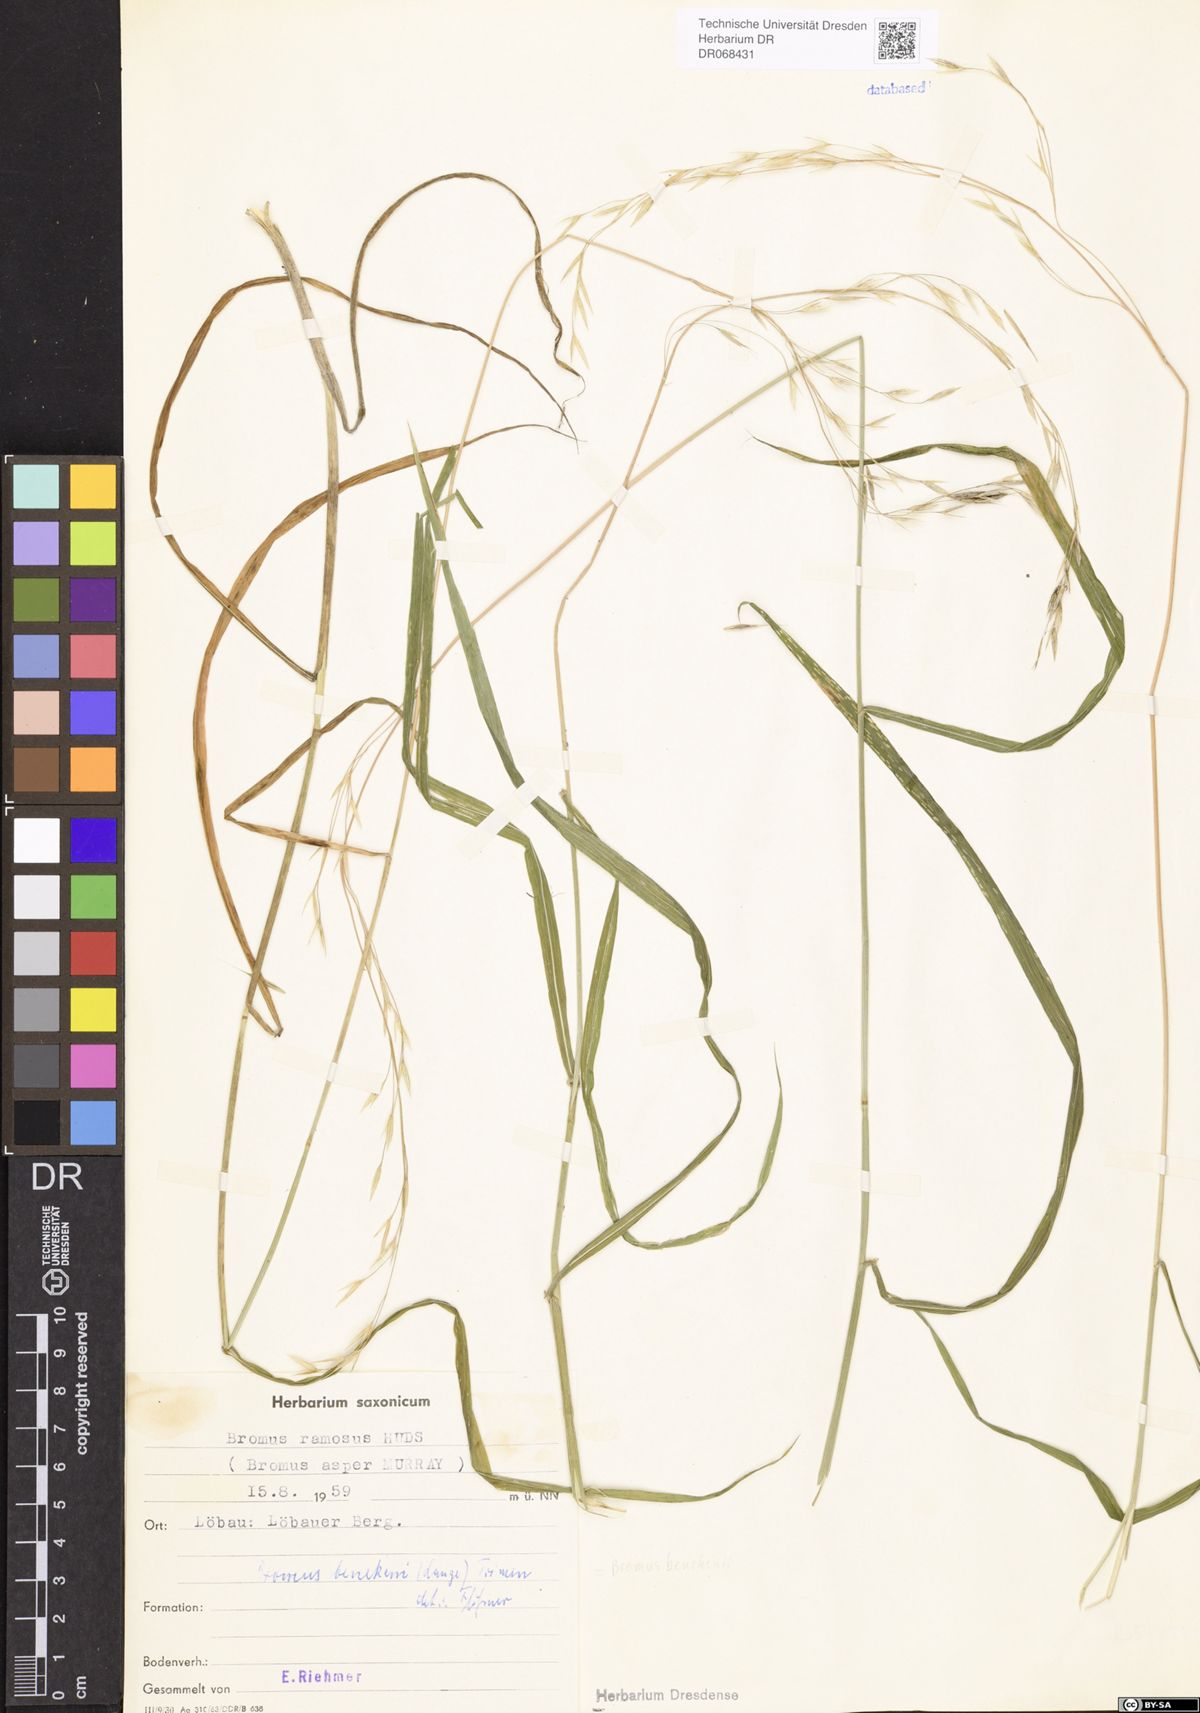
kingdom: Plantae
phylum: Tracheophyta
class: Liliopsida
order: Poales
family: Poaceae
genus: Bromus
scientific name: Bromus benekenii
